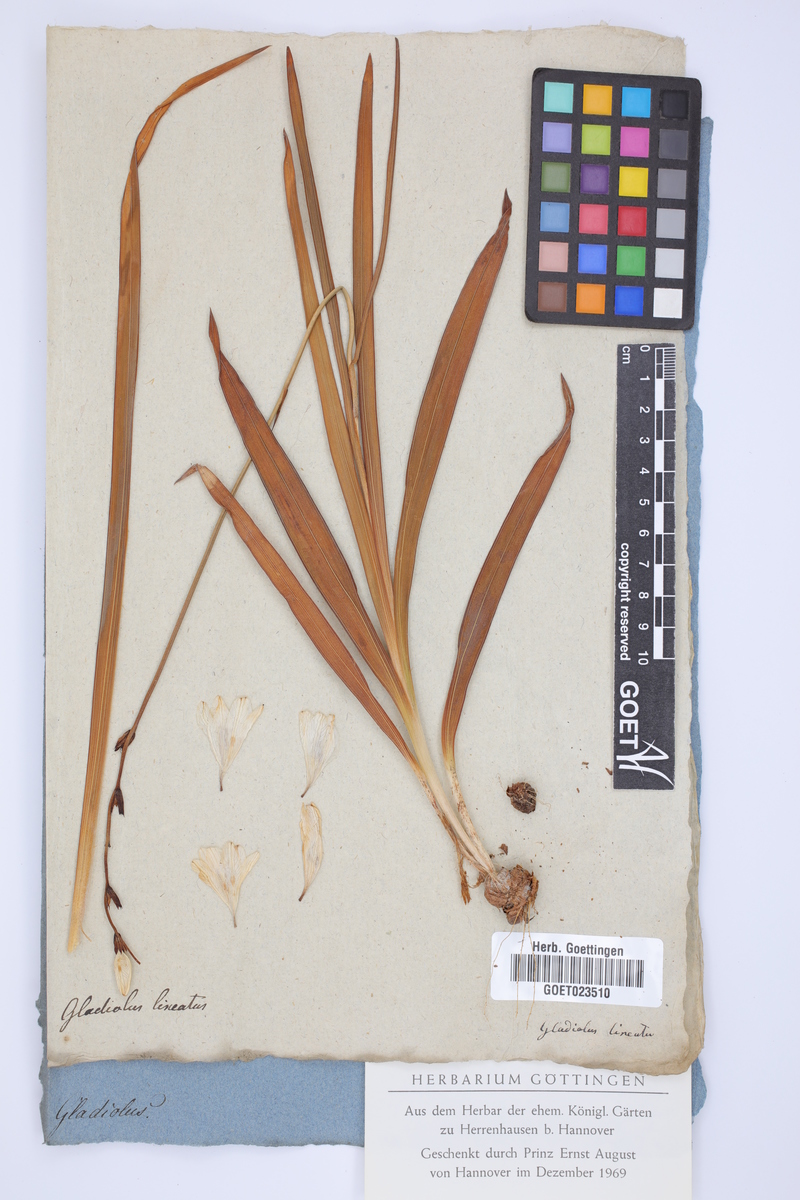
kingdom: Plantae
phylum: Tracheophyta
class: Liliopsida
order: Asparagales
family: Iridaceae
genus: Tritonia
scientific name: Tritonia gladiolaris
